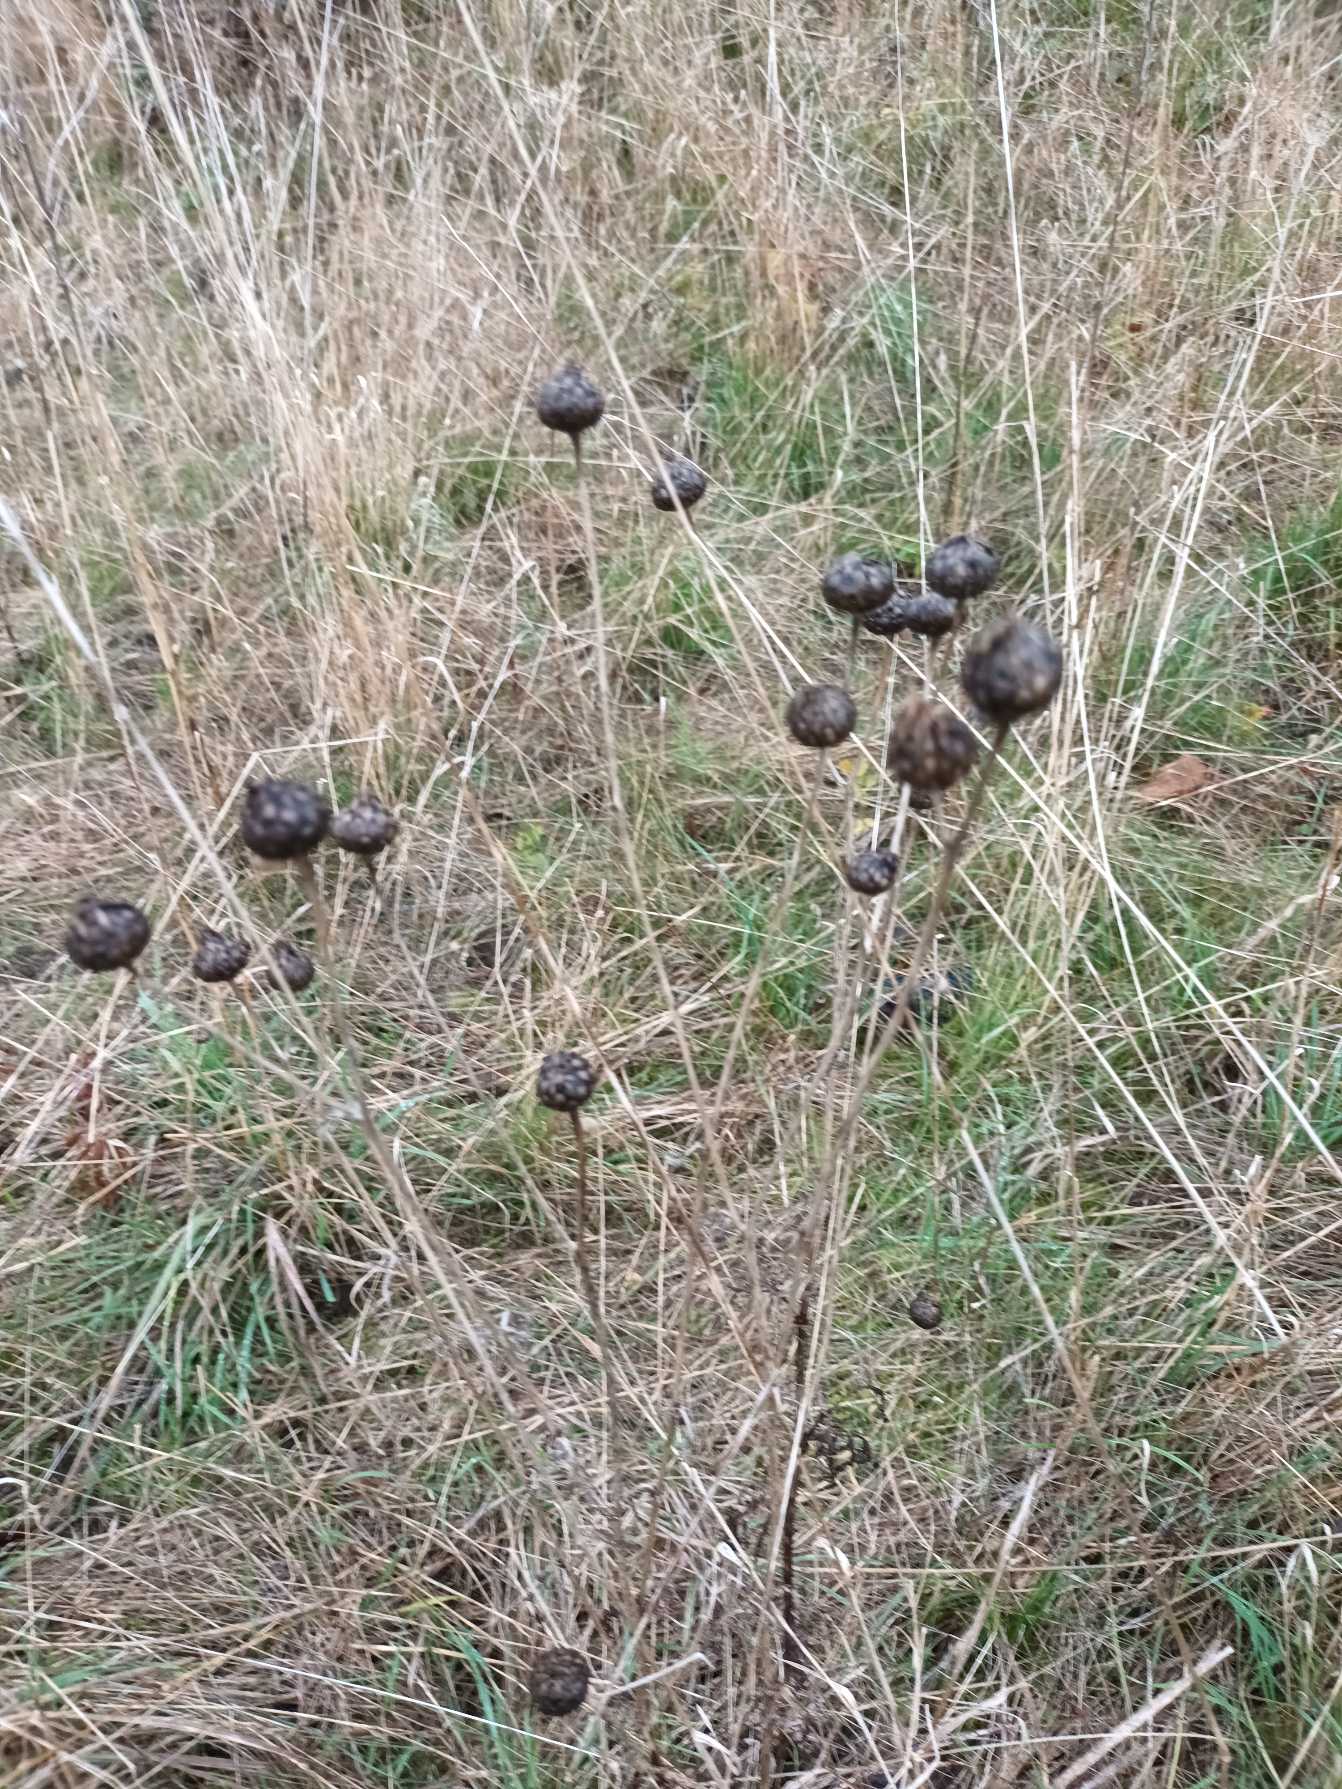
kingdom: Plantae
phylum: Tracheophyta
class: Magnoliopsida
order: Asterales
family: Asteraceae
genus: Centaurea
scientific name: Centaurea scabiosa
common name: Stor knopurt
